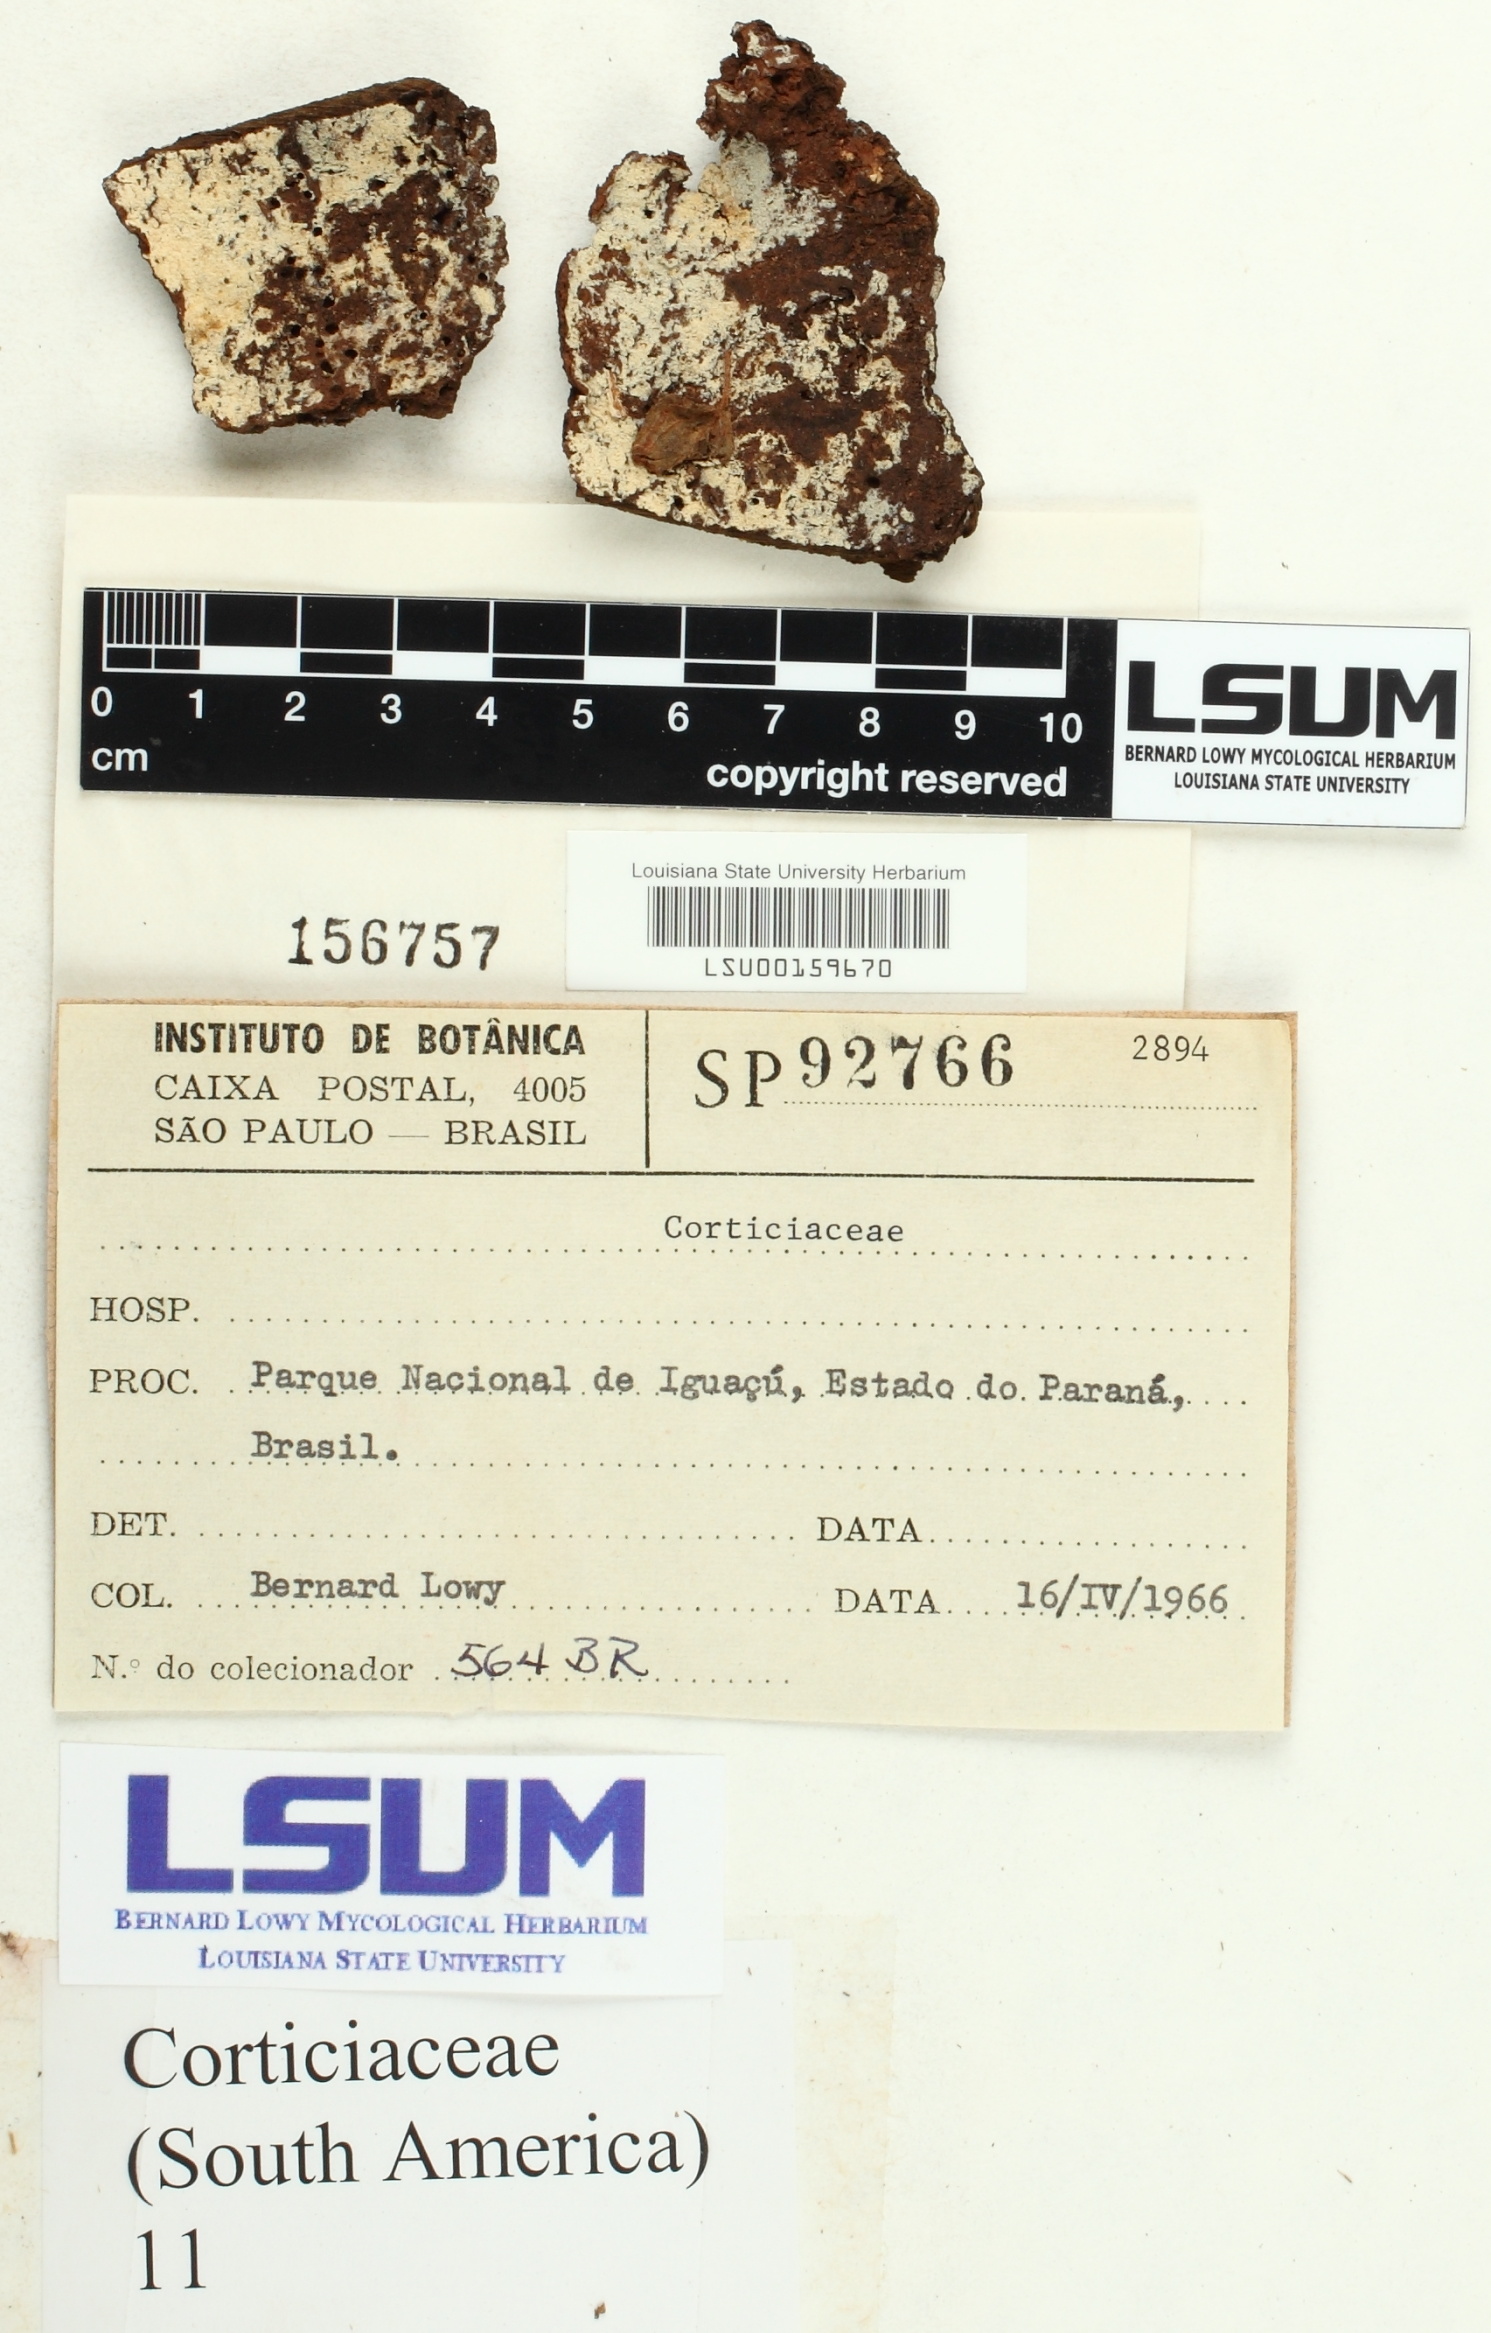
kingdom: Fungi
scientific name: Fungi
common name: Fungi
